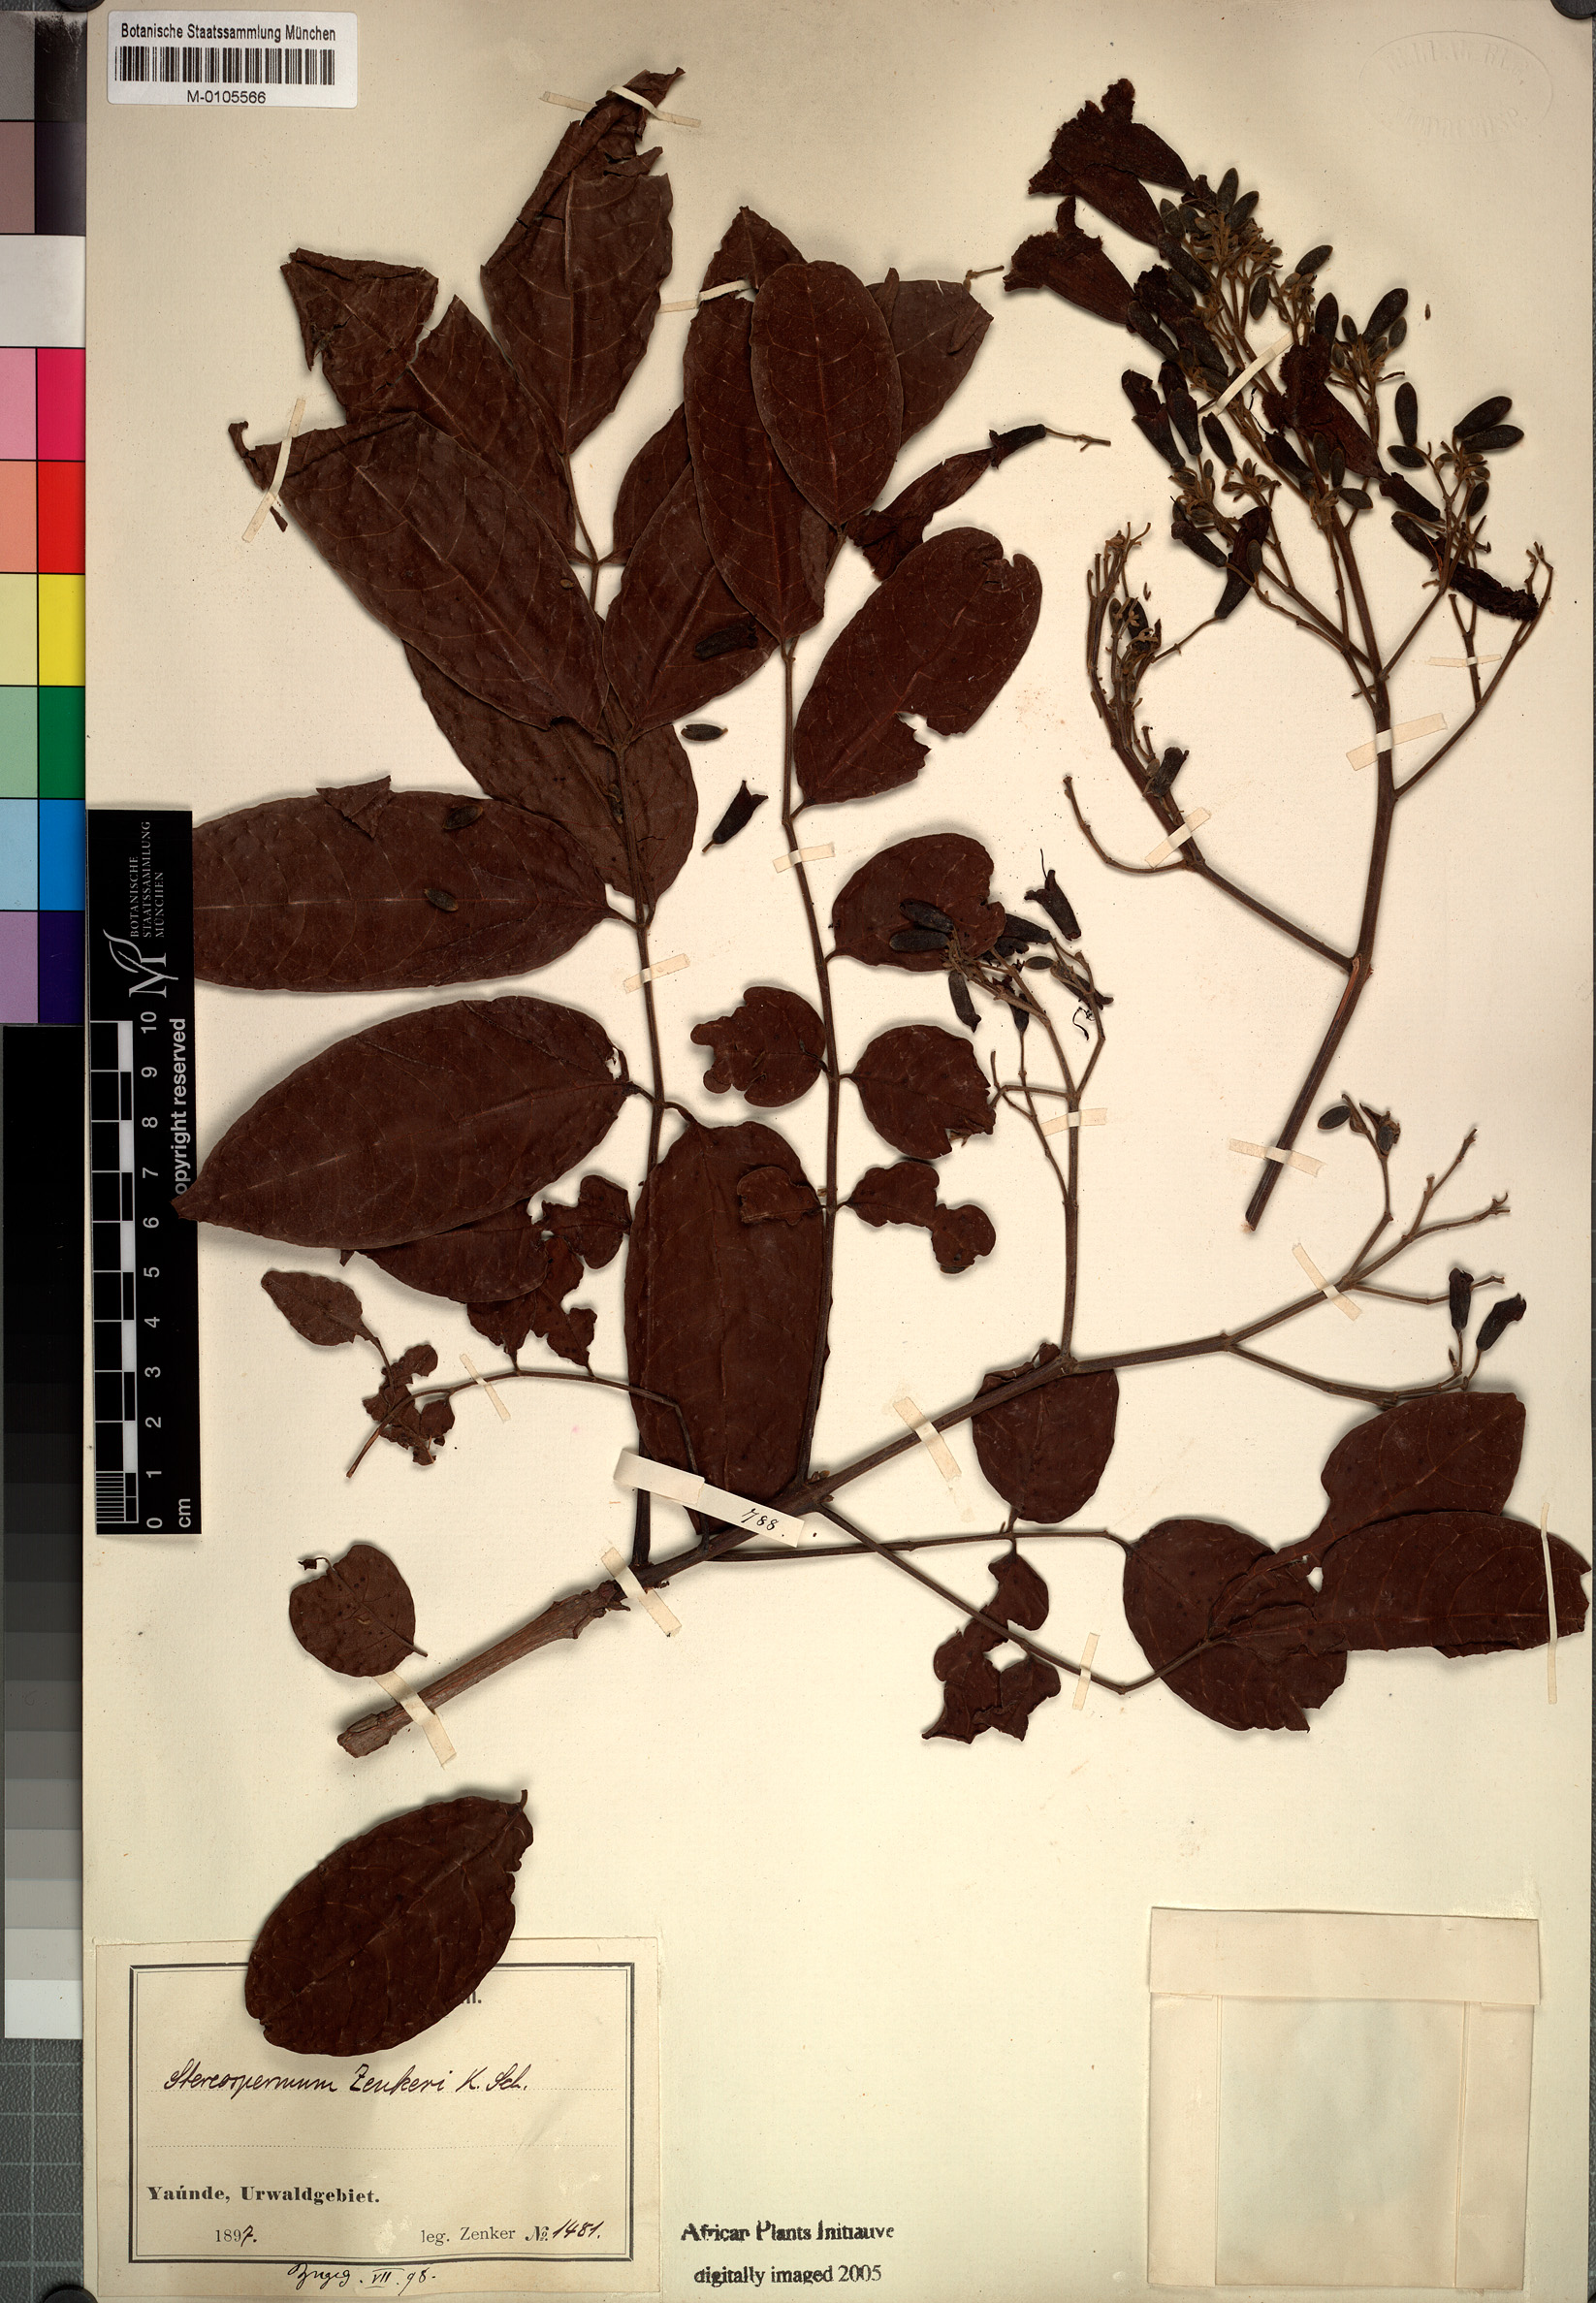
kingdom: Plantae
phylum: Tracheophyta
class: Magnoliopsida
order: Lamiales
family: Bignoniaceae
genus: Stereospermum
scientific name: Stereospermum zenkeri
